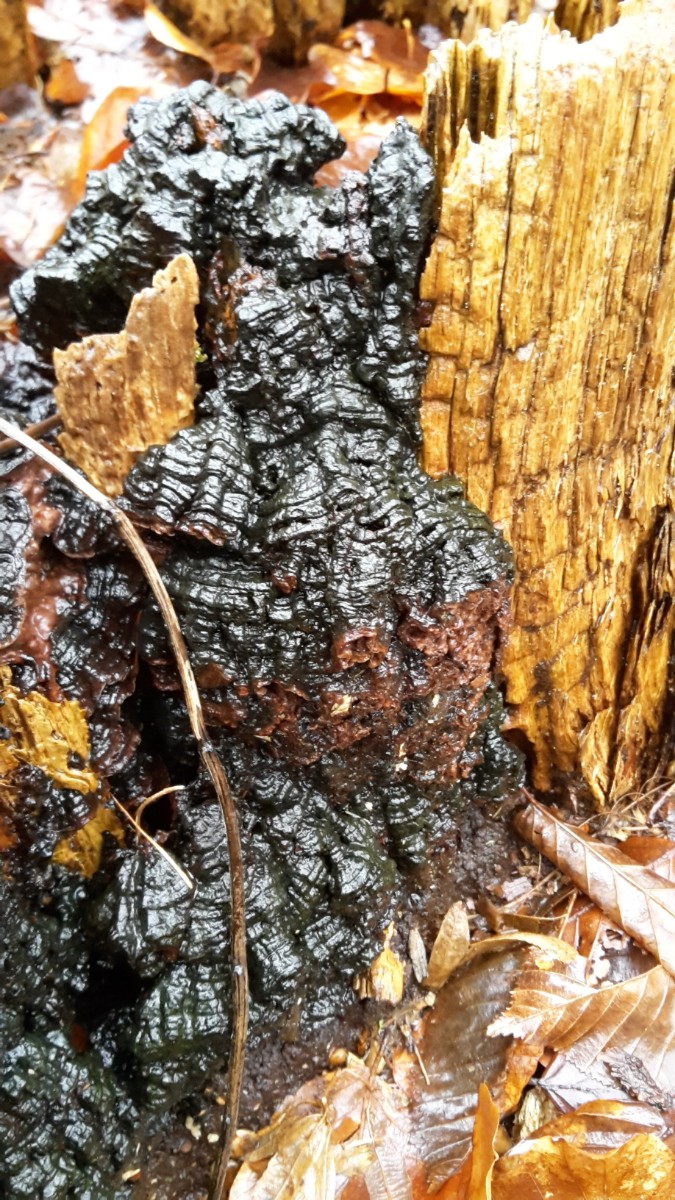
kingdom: Fungi
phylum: Basidiomycota
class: Agaricomycetes
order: Hymenochaetales
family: Hymenochaetaceae
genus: Hymenochaete
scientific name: Hymenochaete rubiginosa
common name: stiv ruslædersvamp
